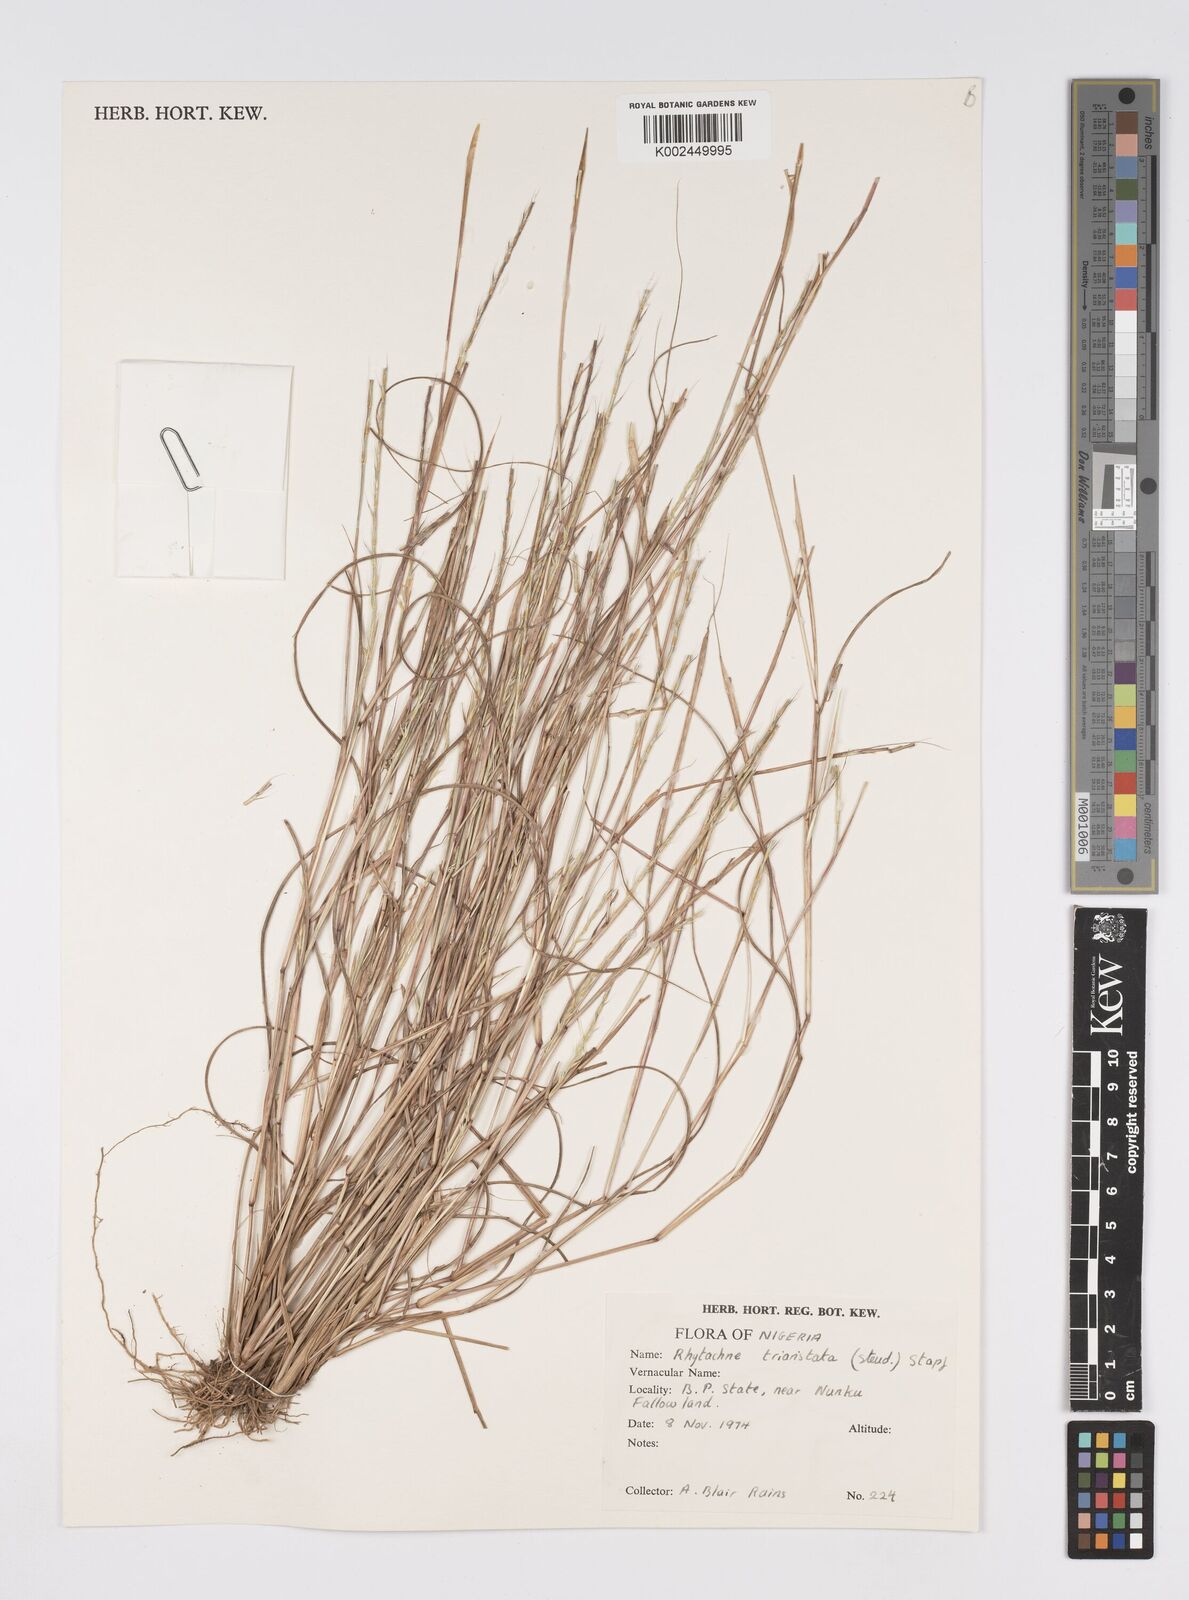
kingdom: Plantae
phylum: Tracheophyta
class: Liliopsida
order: Poales
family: Poaceae
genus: Rhytachne
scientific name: Rhytachne triaristata
